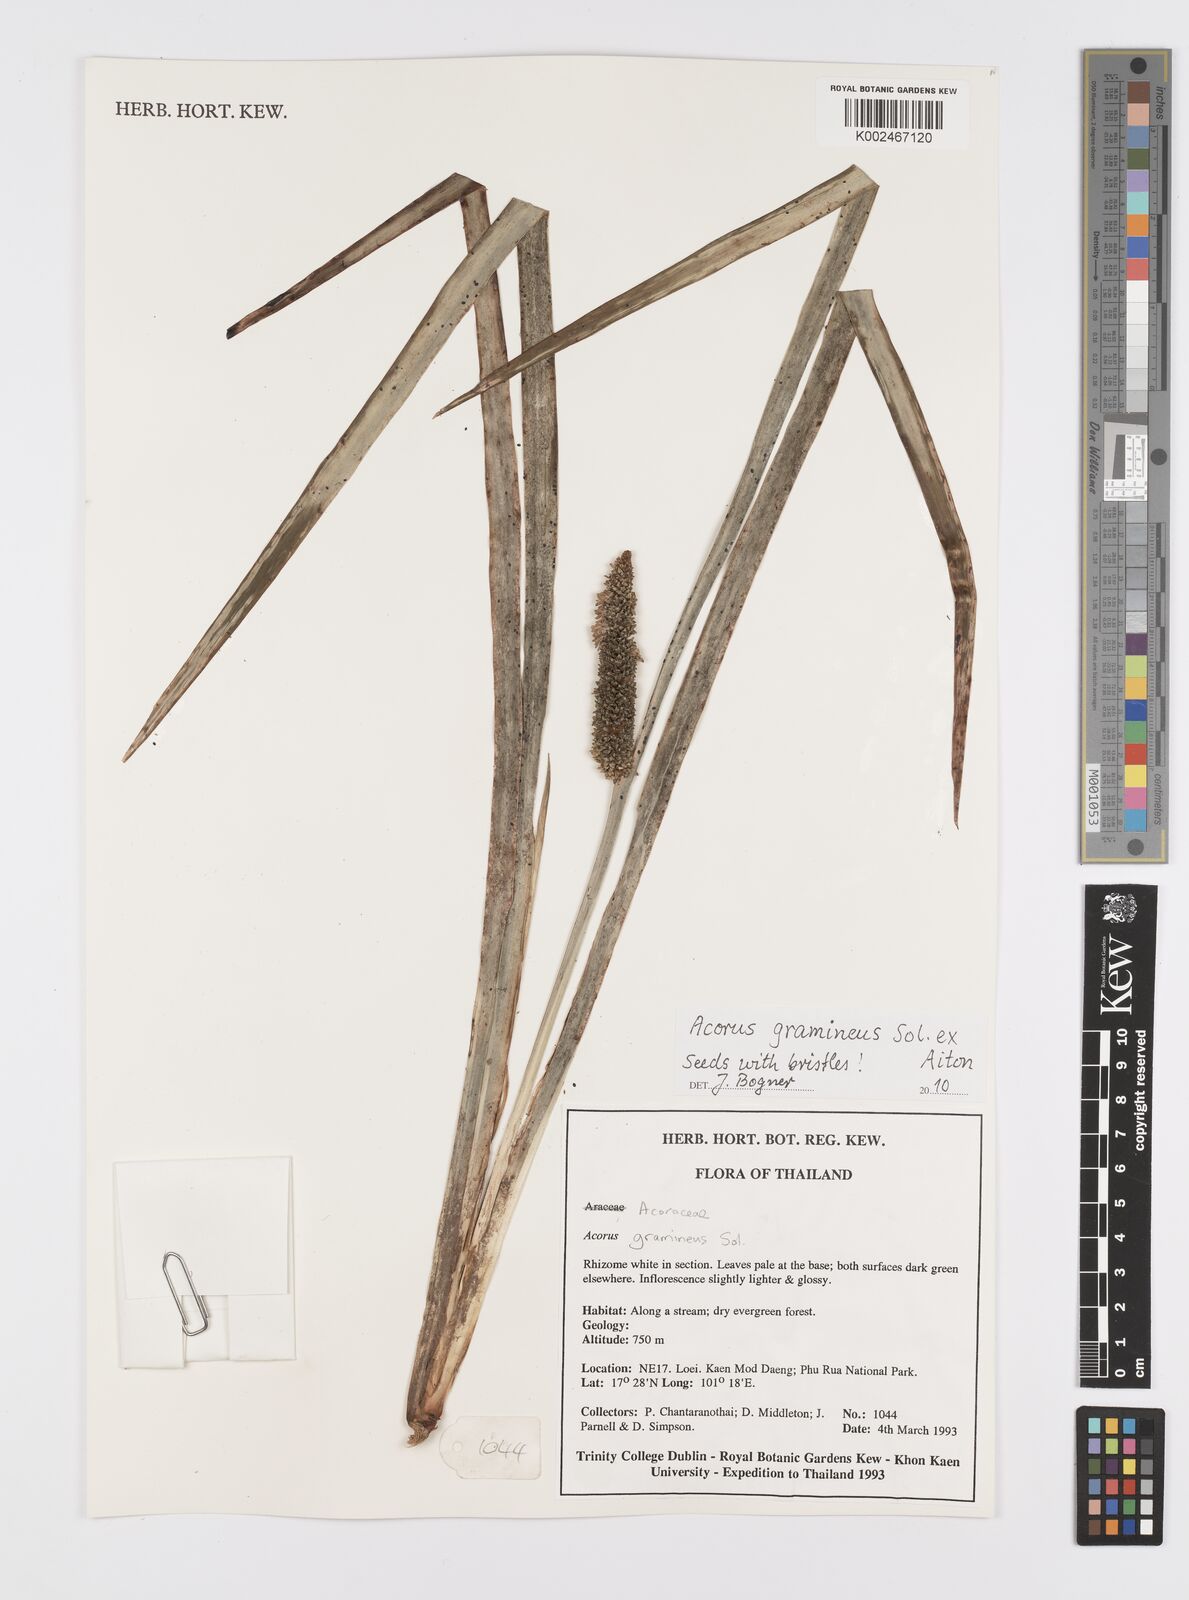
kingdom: Plantae
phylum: Tracheophyta
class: Liliopsida
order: Acorales
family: Acoraceae
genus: Acorus
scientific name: Acorus gramineus
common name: Slender sweet-flag
